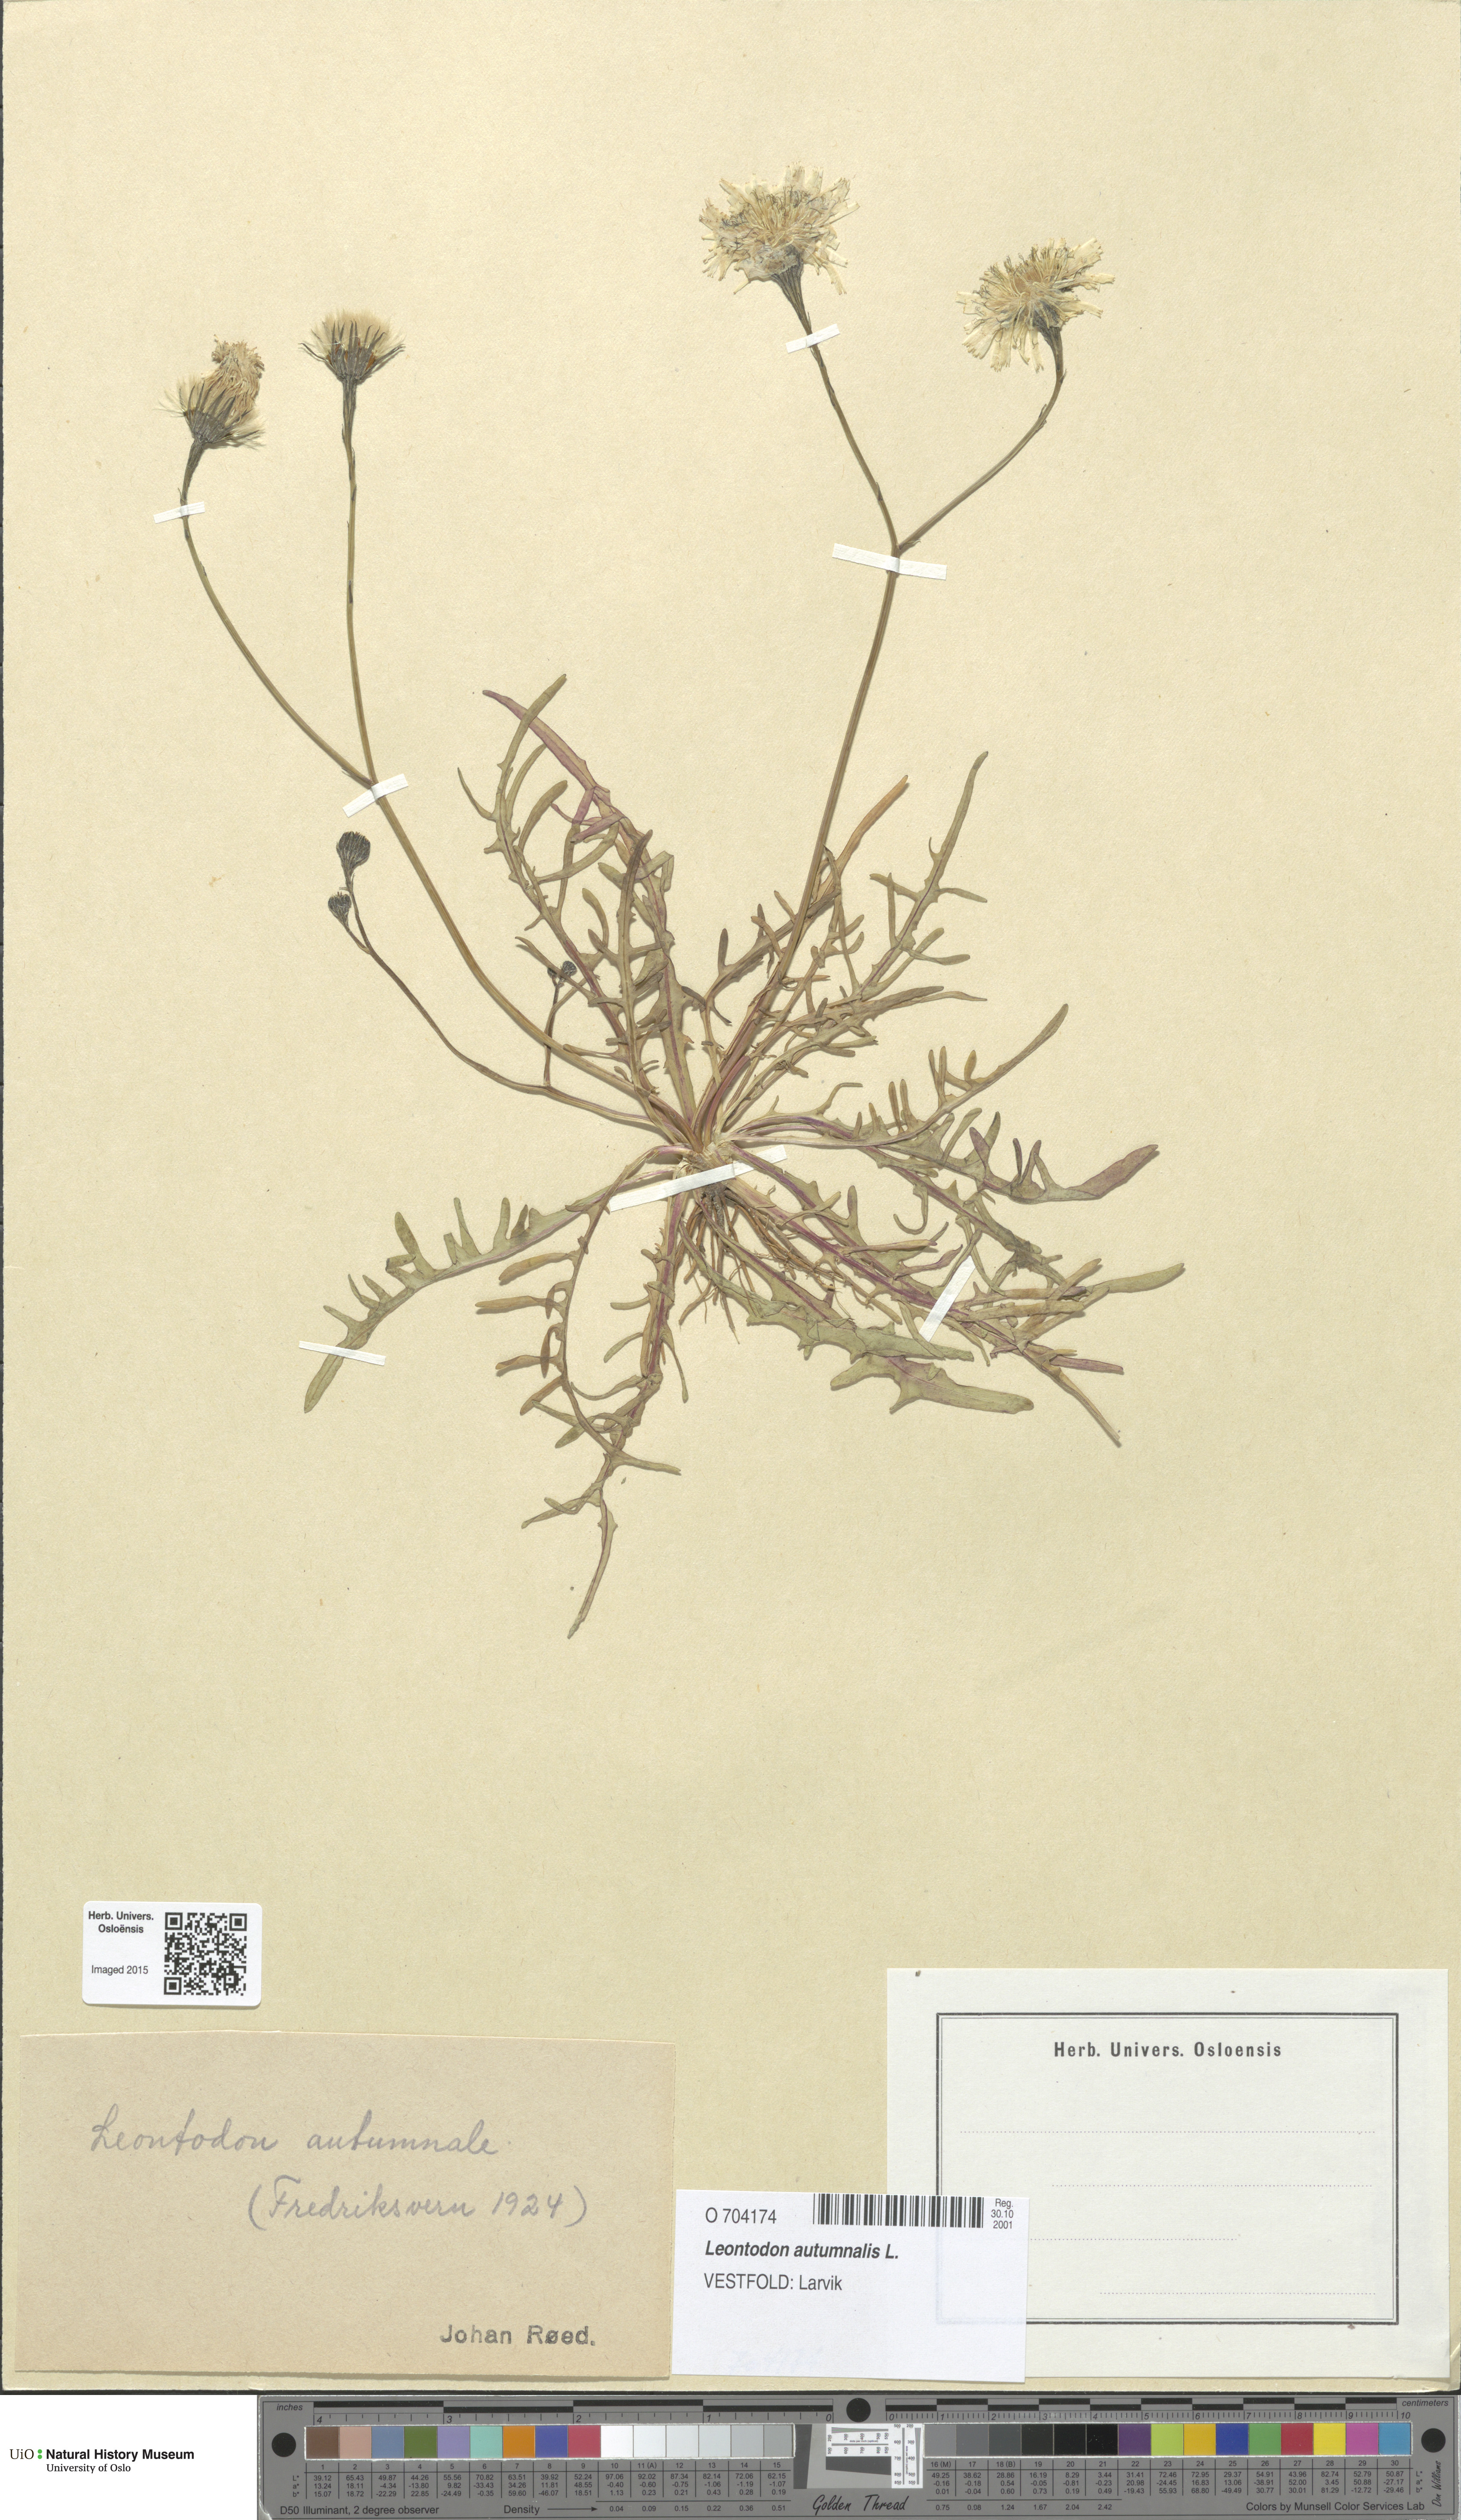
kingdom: Plantae
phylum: Tracheophyta
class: Magnoliopsida
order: Asterales
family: Asteraceae
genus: Scorzoneroides
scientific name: Scorzoneroides autumnalis
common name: Autumn hawkbit
